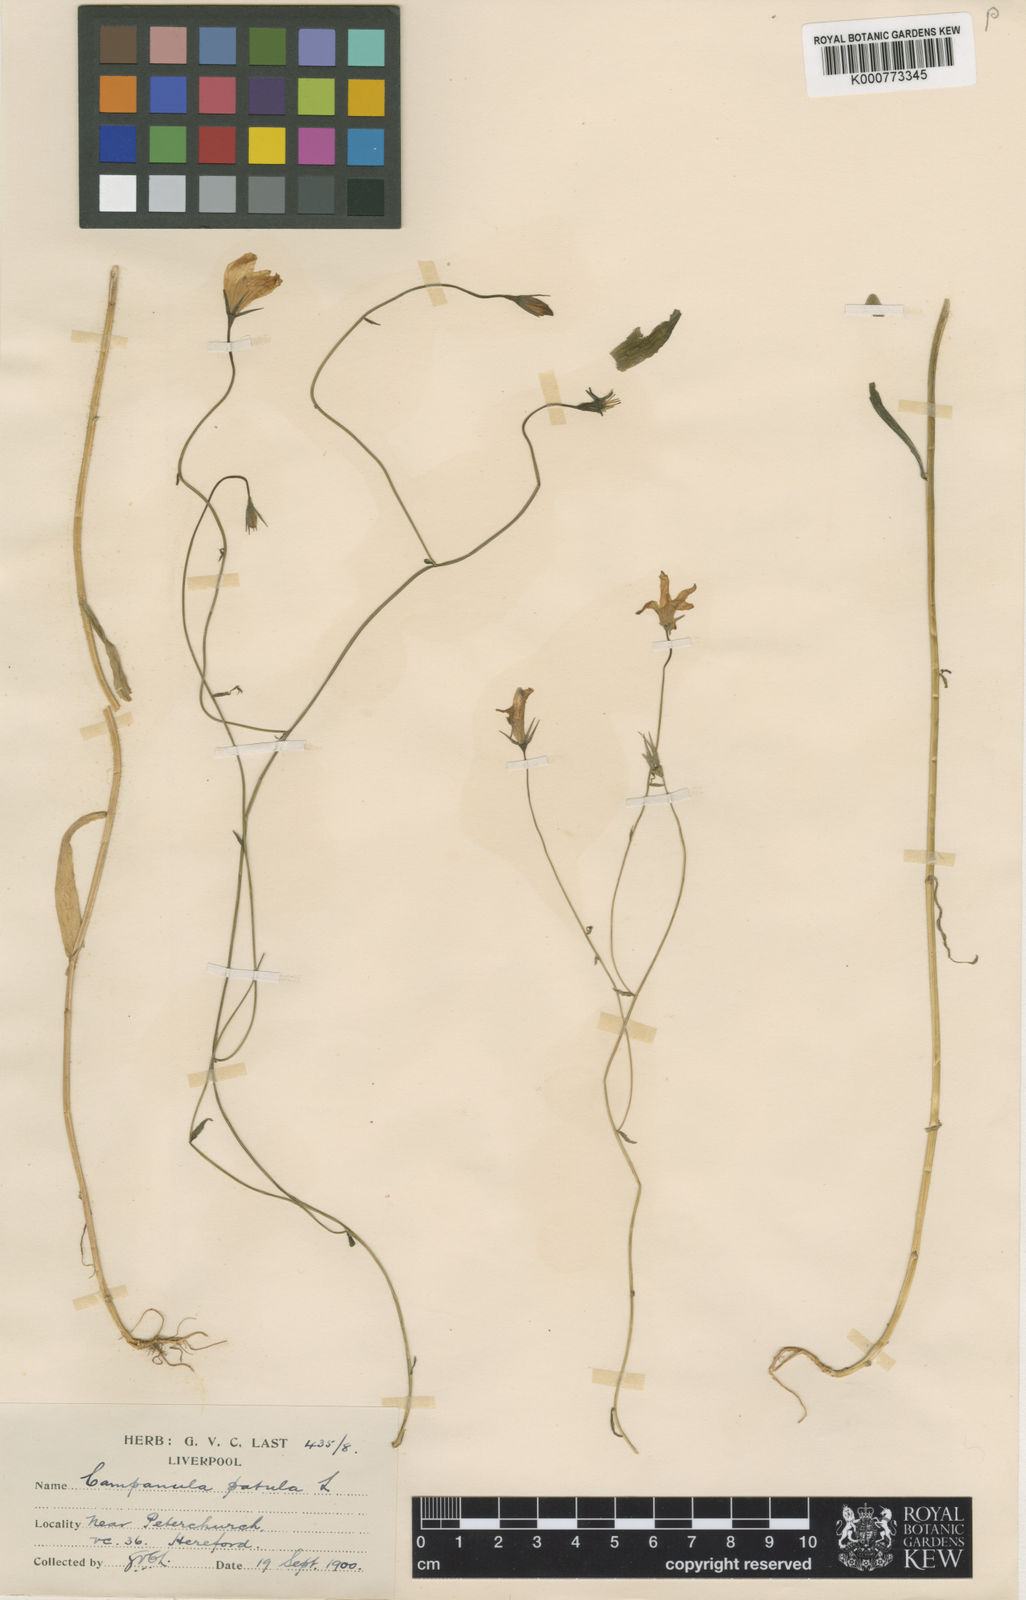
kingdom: Plantae
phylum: Tracheophyta
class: Magnoliopsida
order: Asterales
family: Campanulaceae
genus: Campanula
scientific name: Campanula patula
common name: Spreading bellflower
